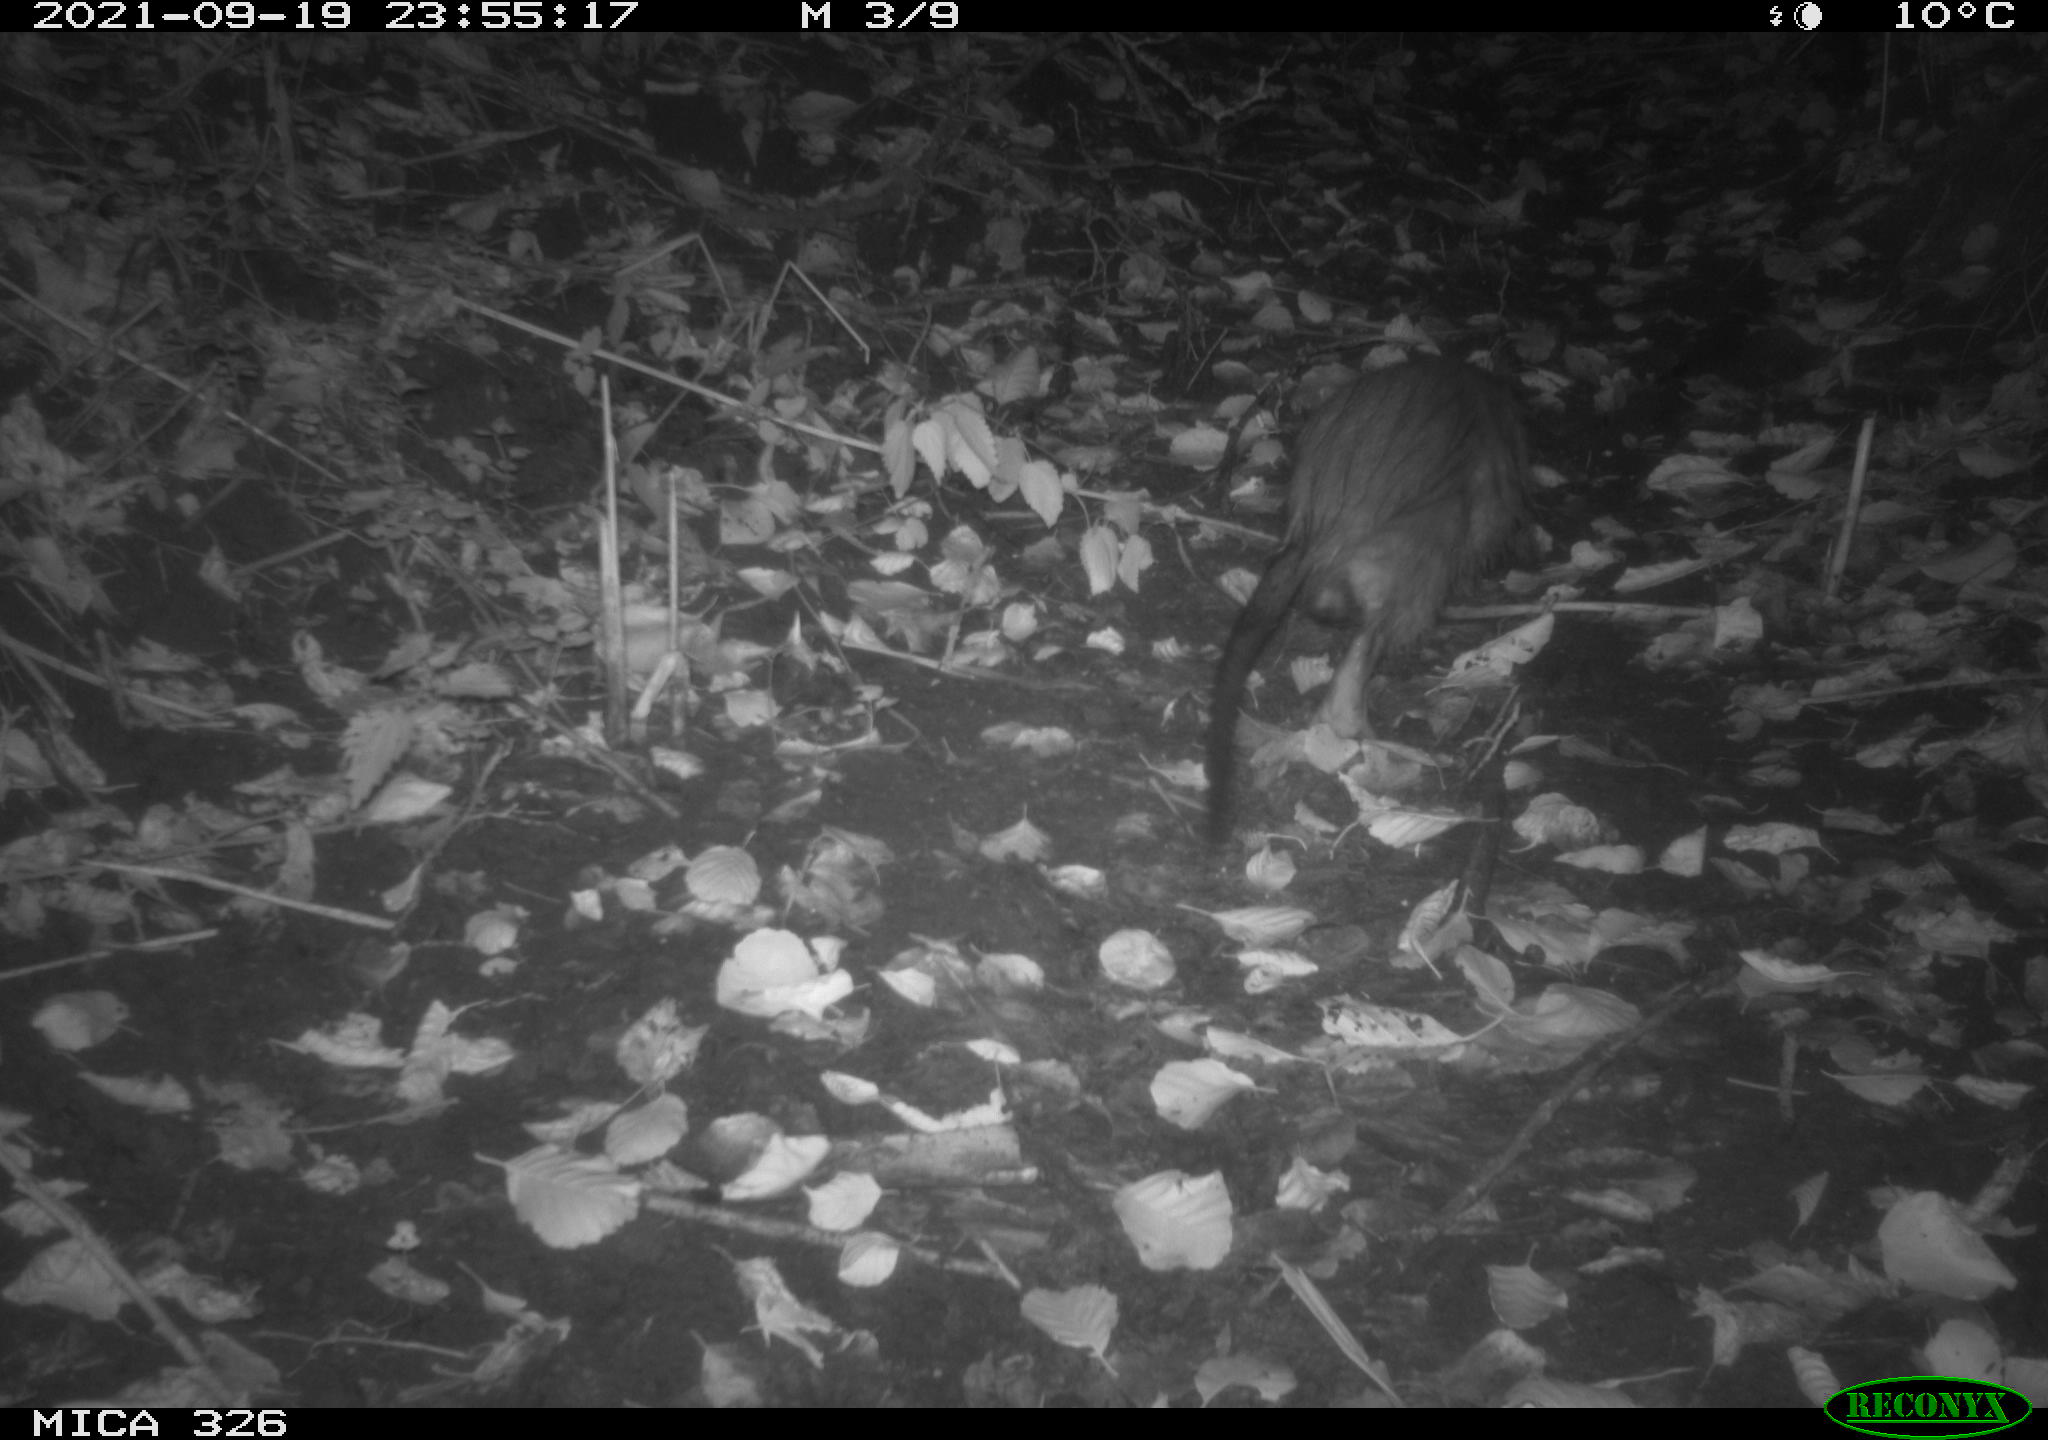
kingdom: Animalia
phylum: Chordata
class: Mammalia
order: Rodentia
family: Myocastoridae
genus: Myocastor
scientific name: Myocastor coypus
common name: Coypu
